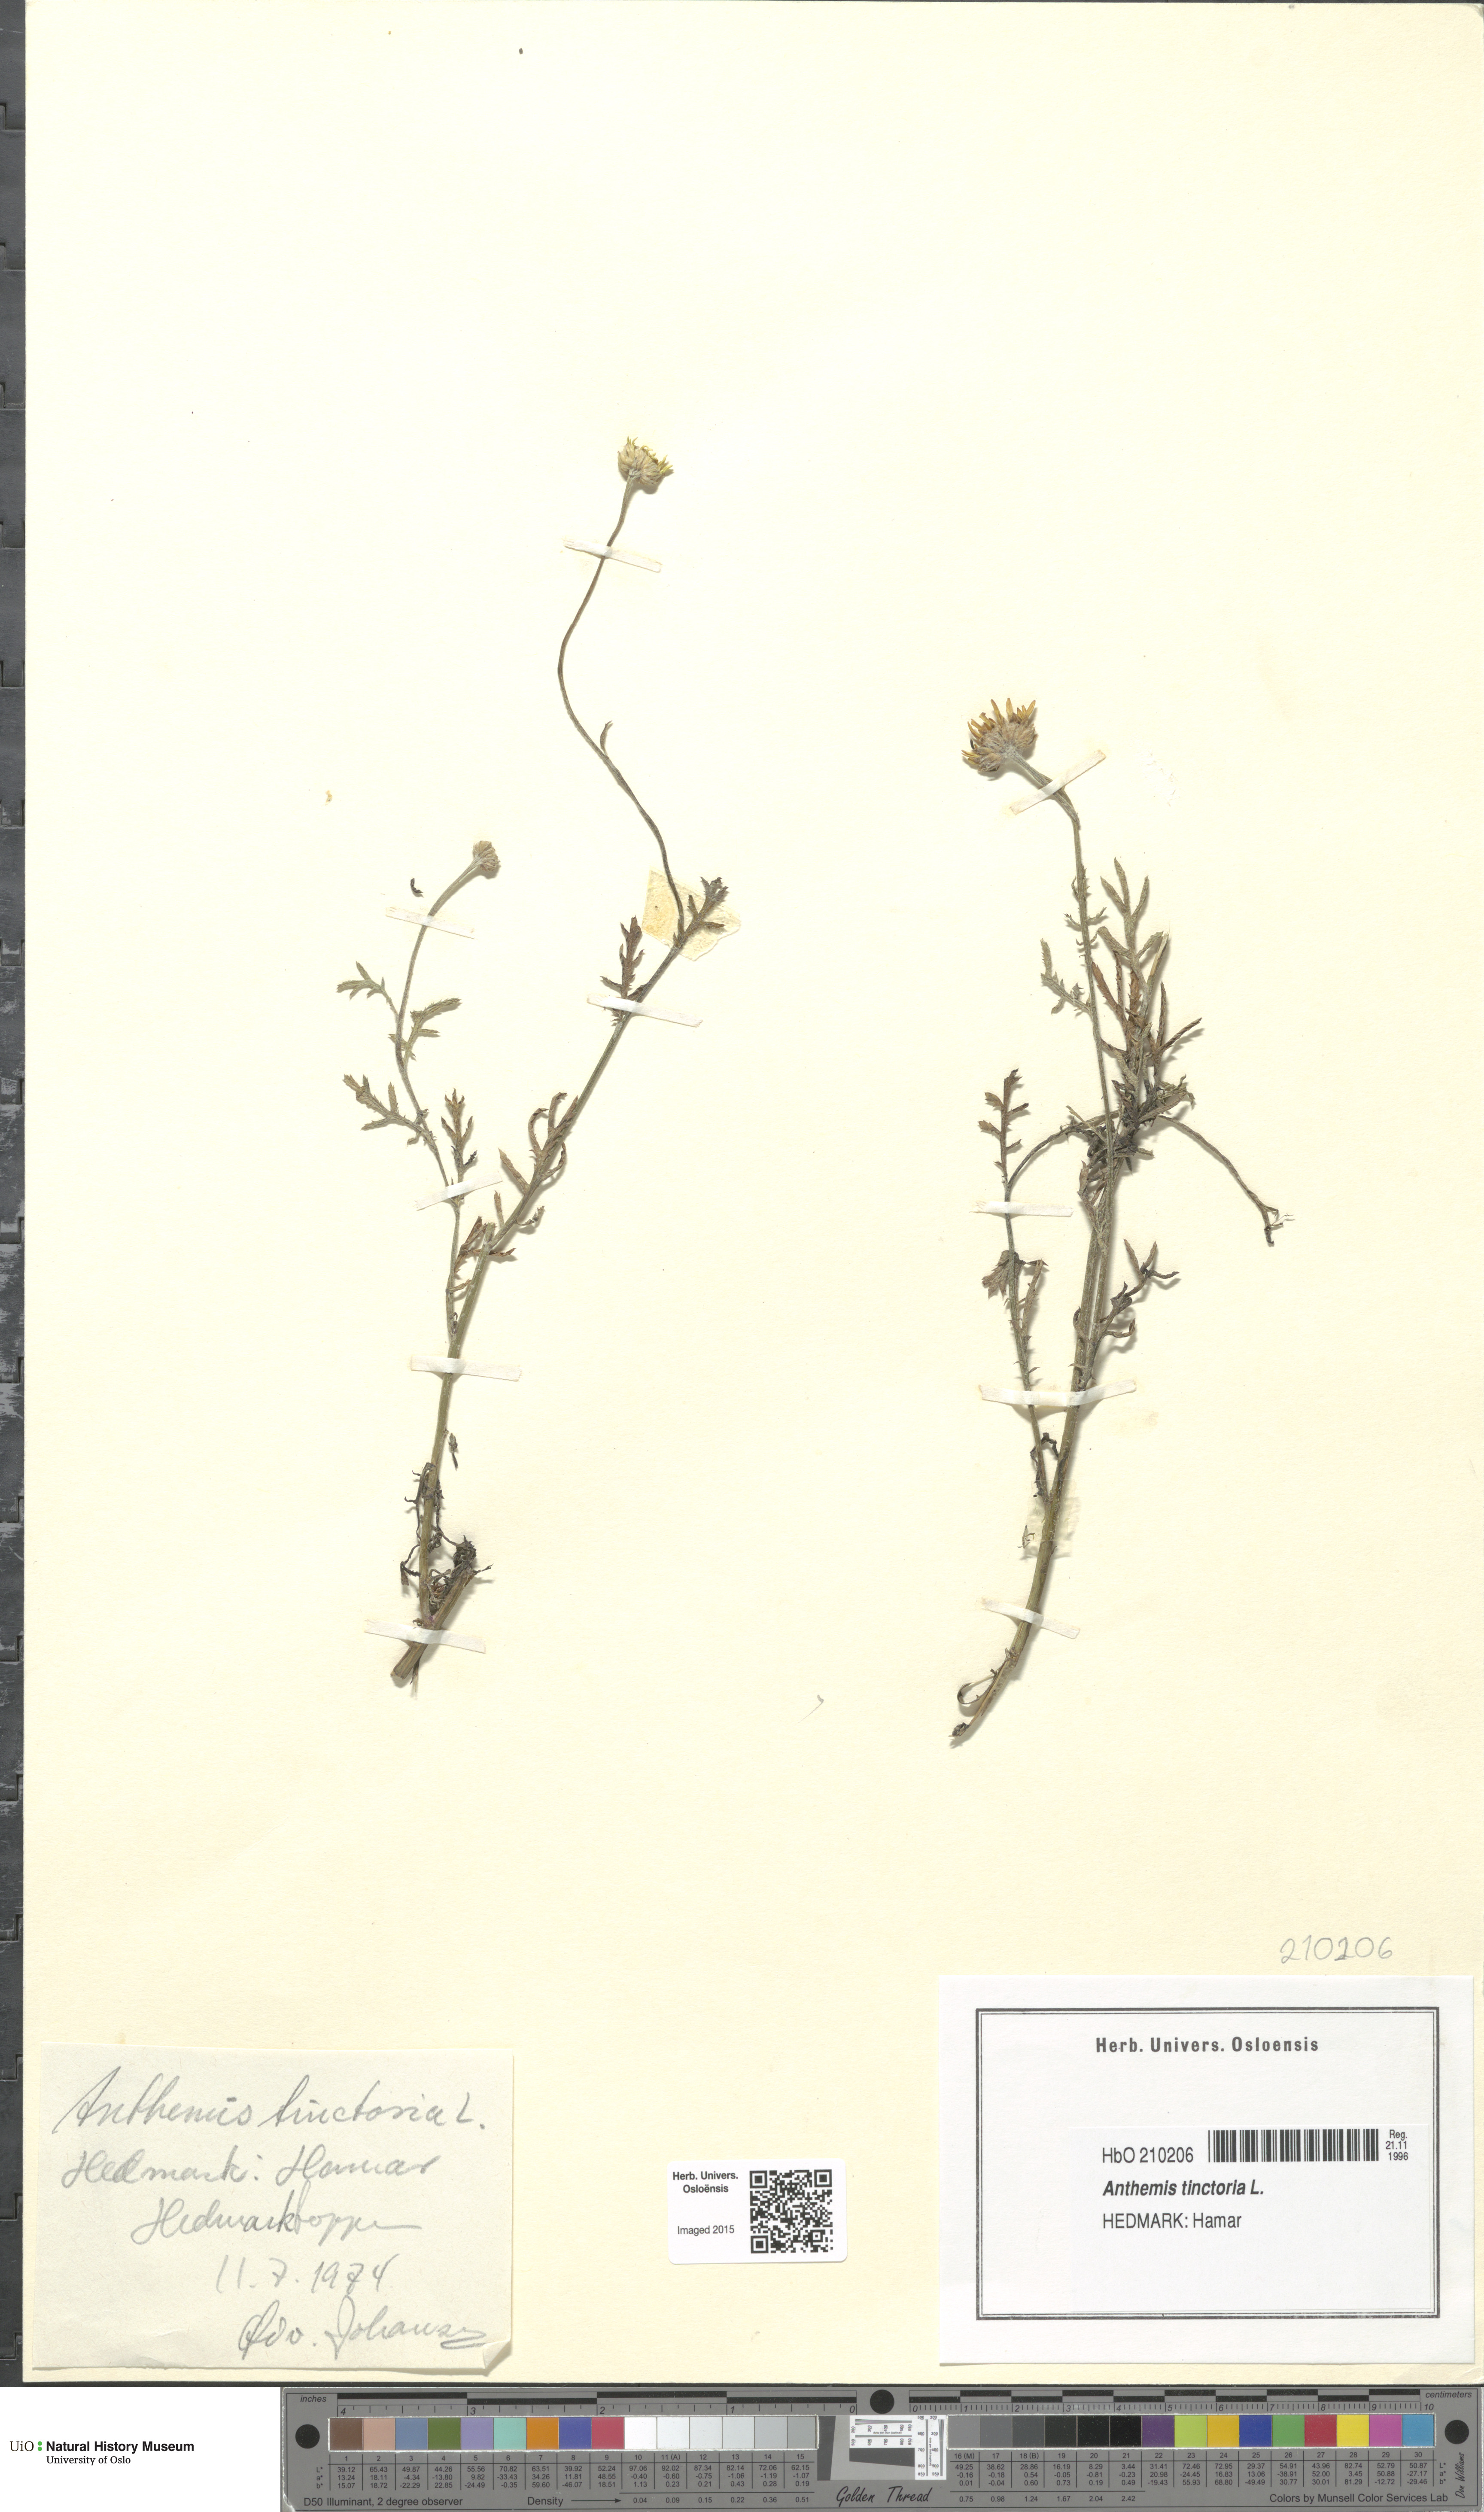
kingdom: Plantae
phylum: Tracheophyta
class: Magnoliopsida
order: Asterales
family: Asteraceae
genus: Cota
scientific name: Cota tinctoria
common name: Golden chamomile
